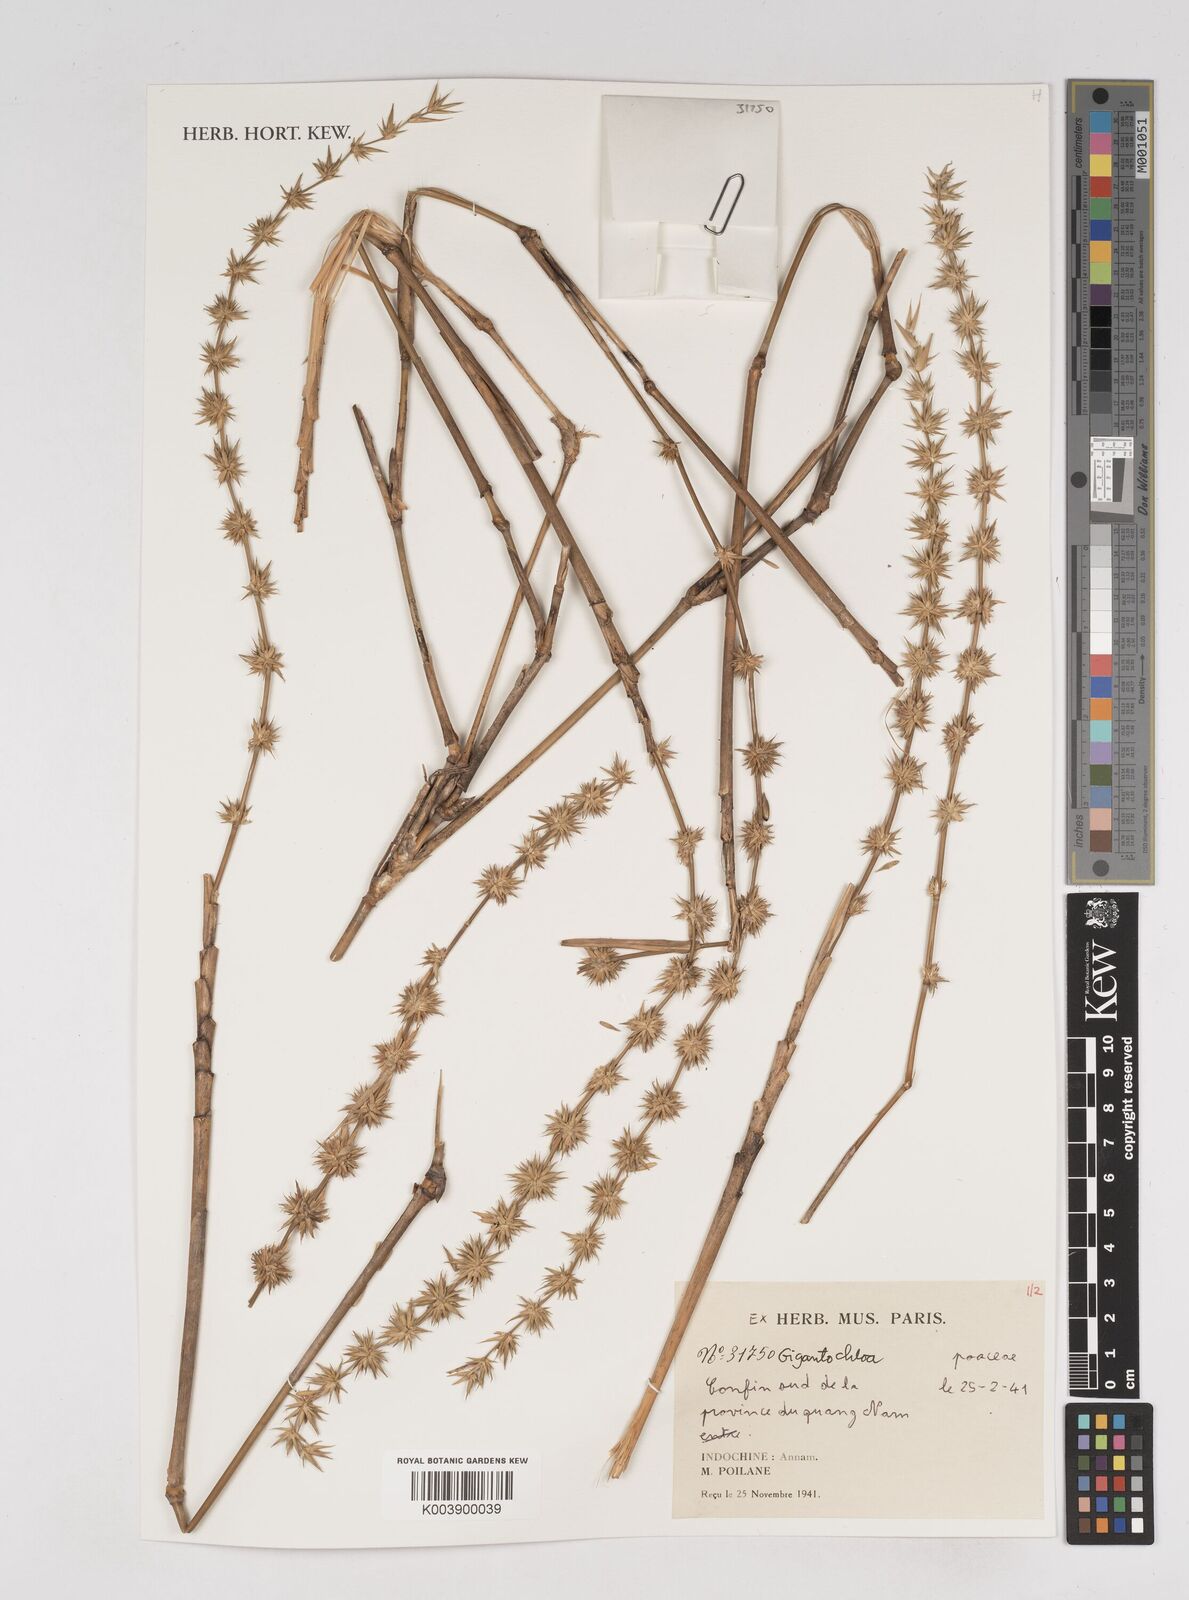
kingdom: Plantae
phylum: Tracheophyta
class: Liliopsida
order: Poales
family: Poaceae
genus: Gigantochloa
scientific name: Gigantochloa
